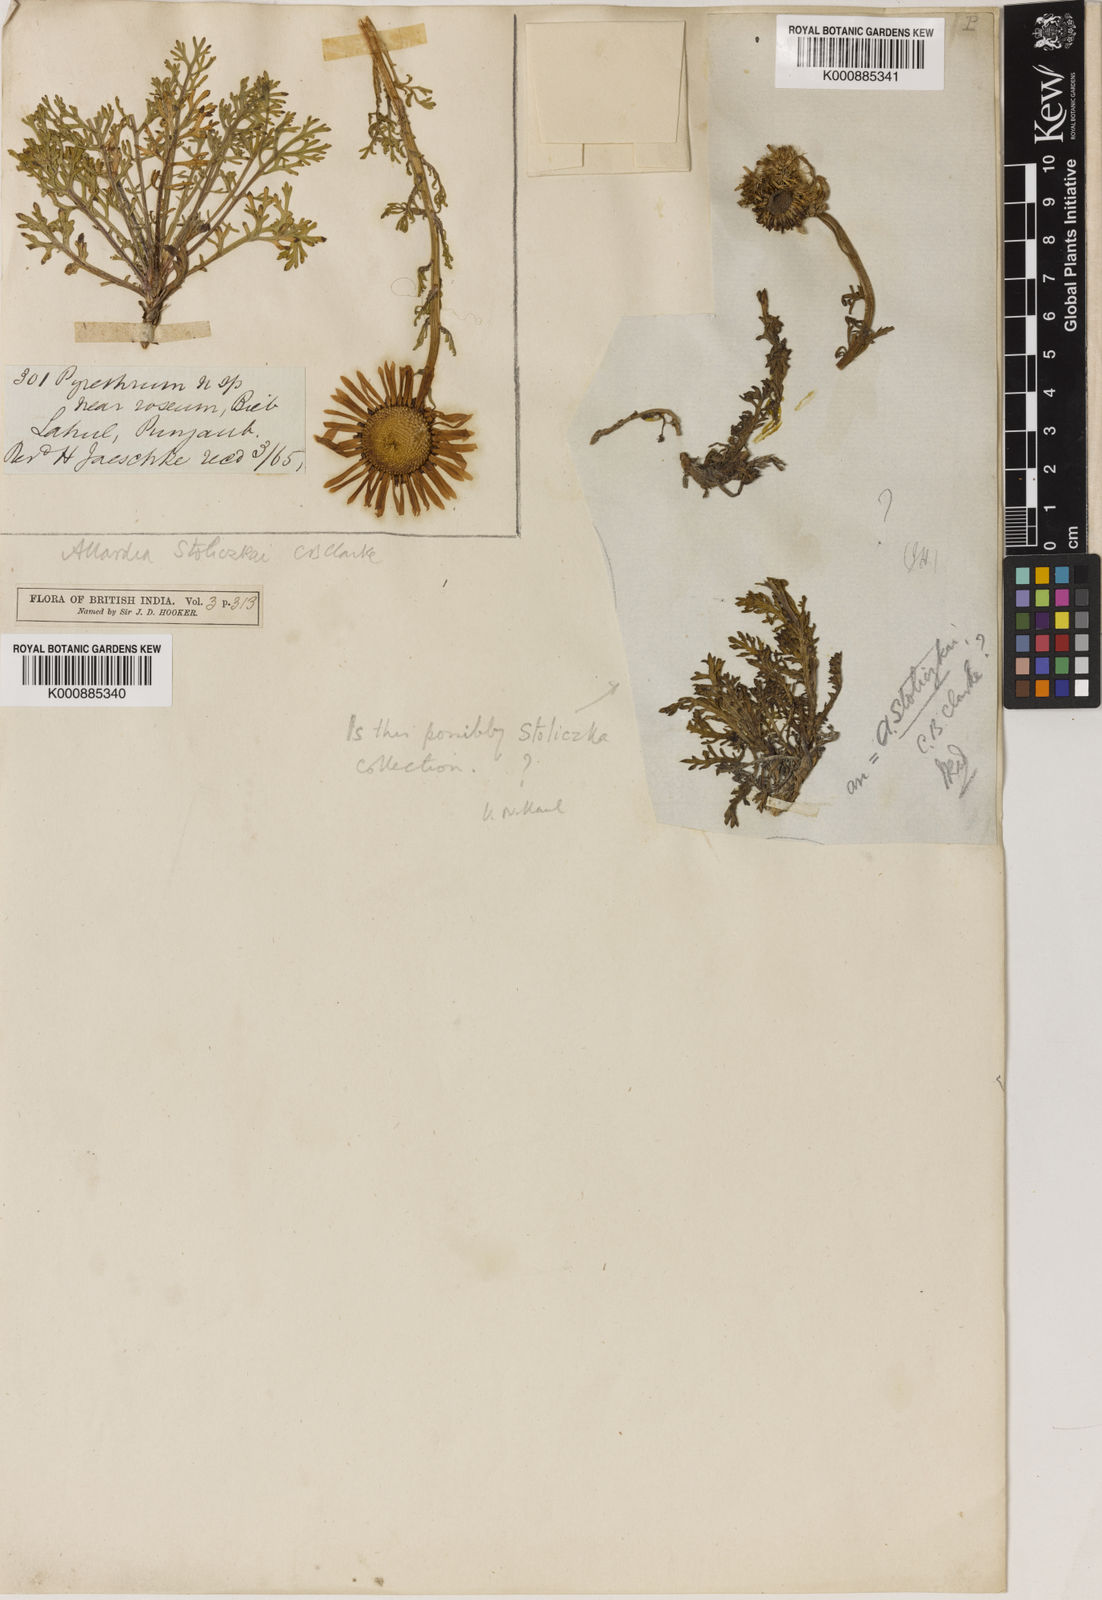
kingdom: Plantae
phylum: Tracheophyta
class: Magnoliopsida
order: Asterales
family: Asteraceae
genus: Allardia
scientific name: Allardia
